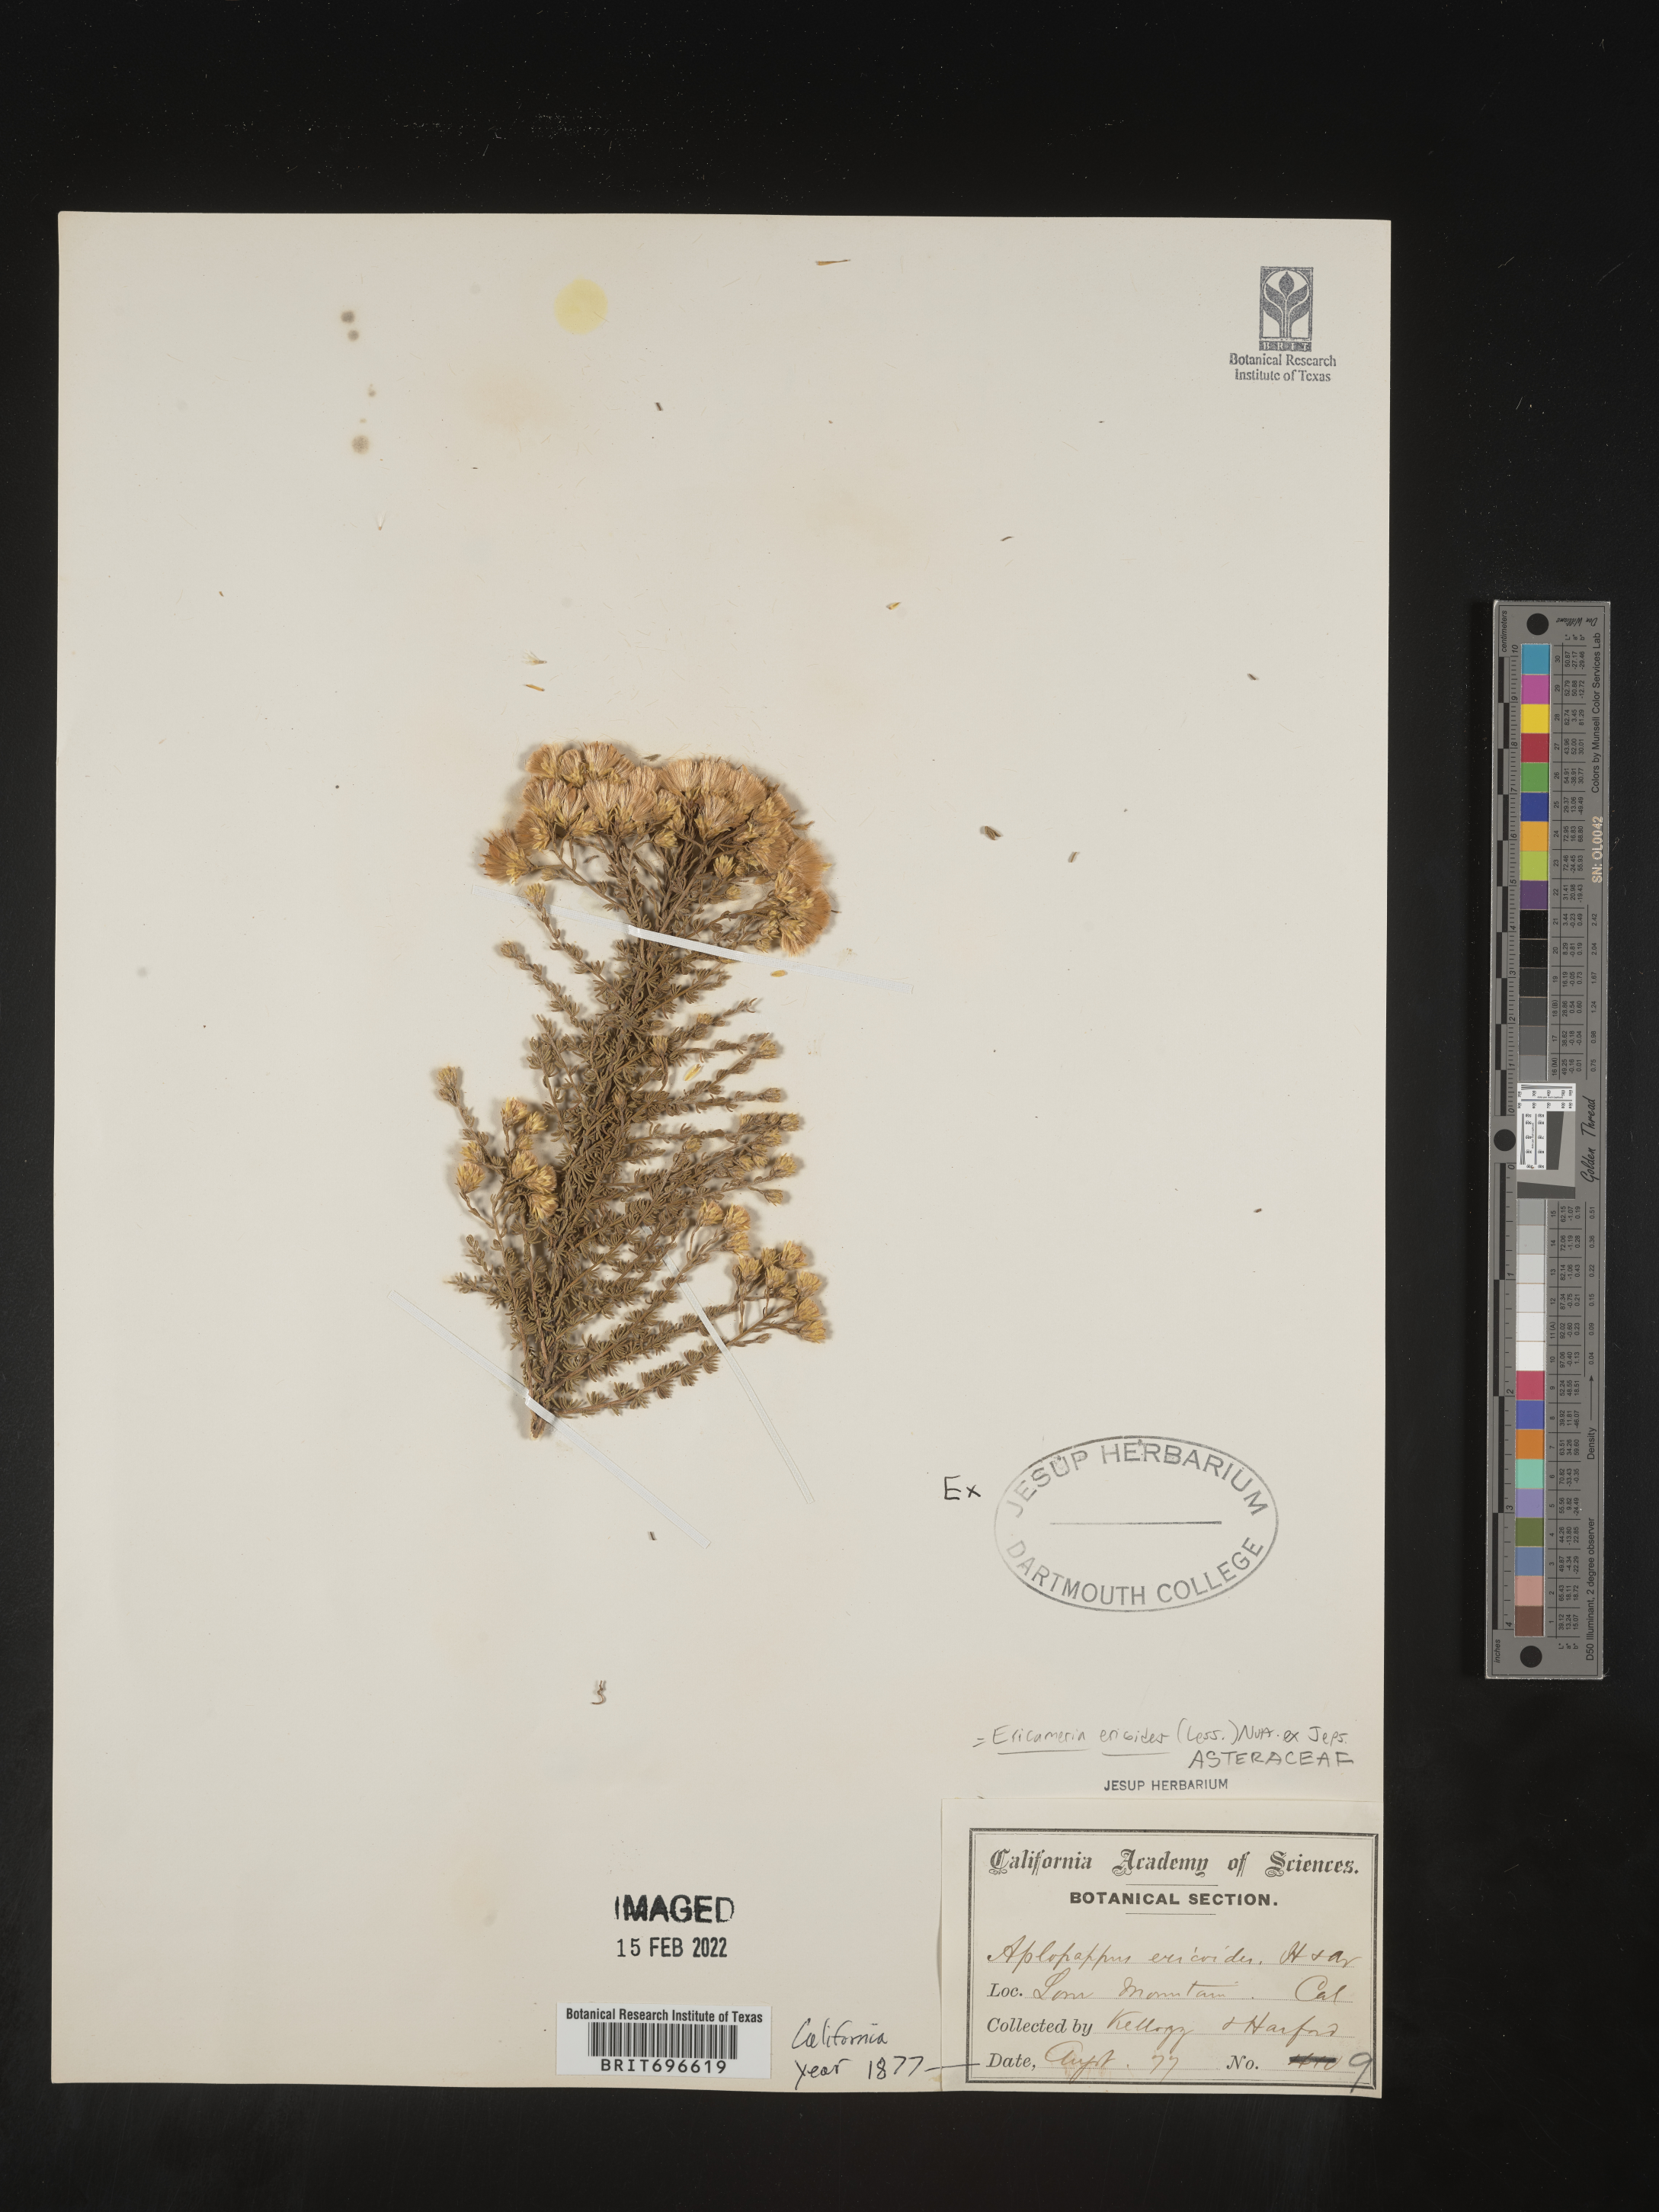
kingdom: Plantae
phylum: Tracheophyta
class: Magnoliopsida
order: Asterales
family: Asteraceae
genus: Ericameria
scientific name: Ericameria ericoides
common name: California goldenbush
